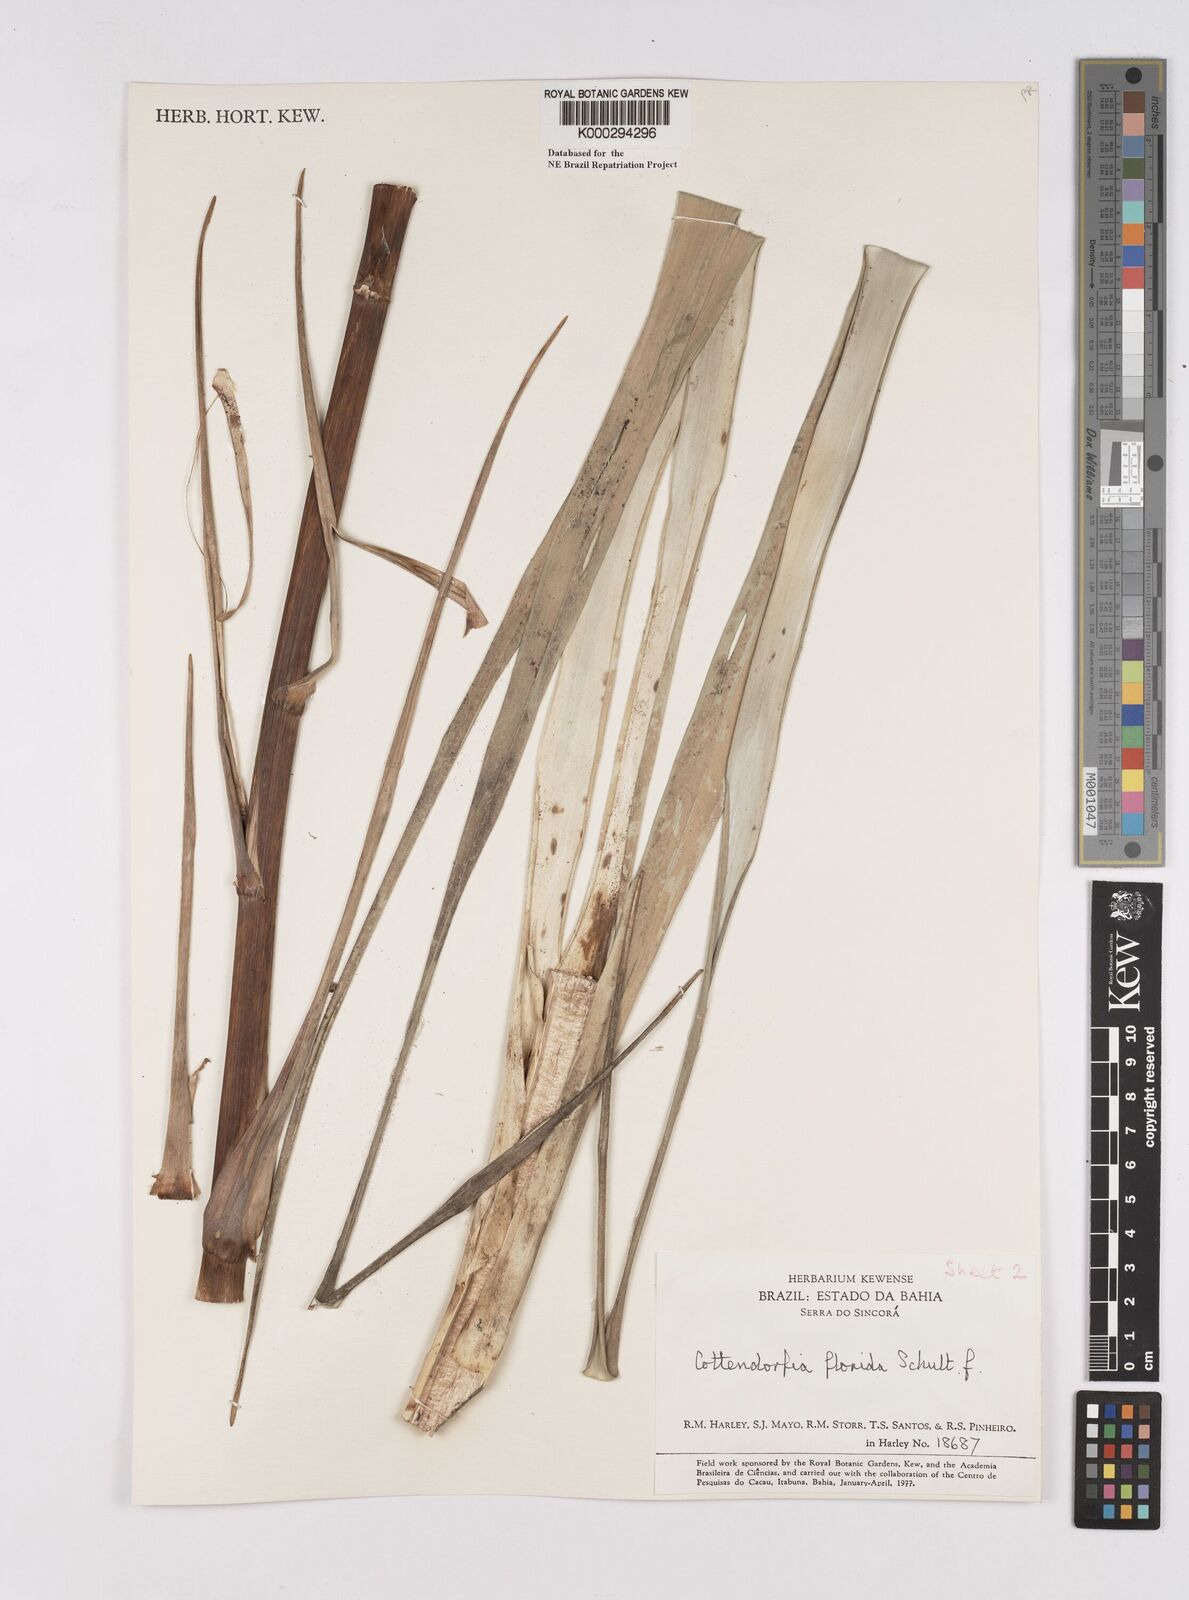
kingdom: Plantae
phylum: Tracheophyta
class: Liliopsida
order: Poales
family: Bromeliaceae
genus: Cottendorfia
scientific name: Cottendorfia florida
